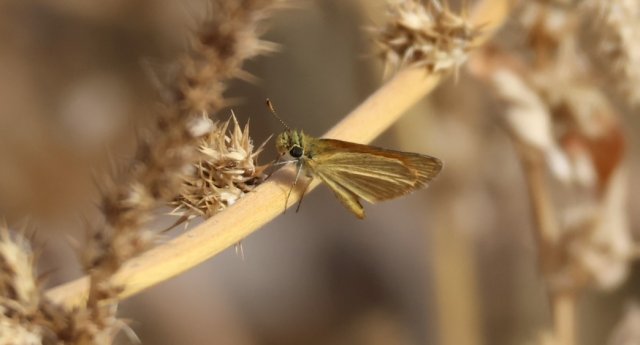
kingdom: Animalia
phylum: Arthropoda
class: Insecta
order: Lepidoptera
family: Hesperiidae
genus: Ancyloxypha
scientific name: Ancyloxypha arene
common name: Tropical Least Skipper
